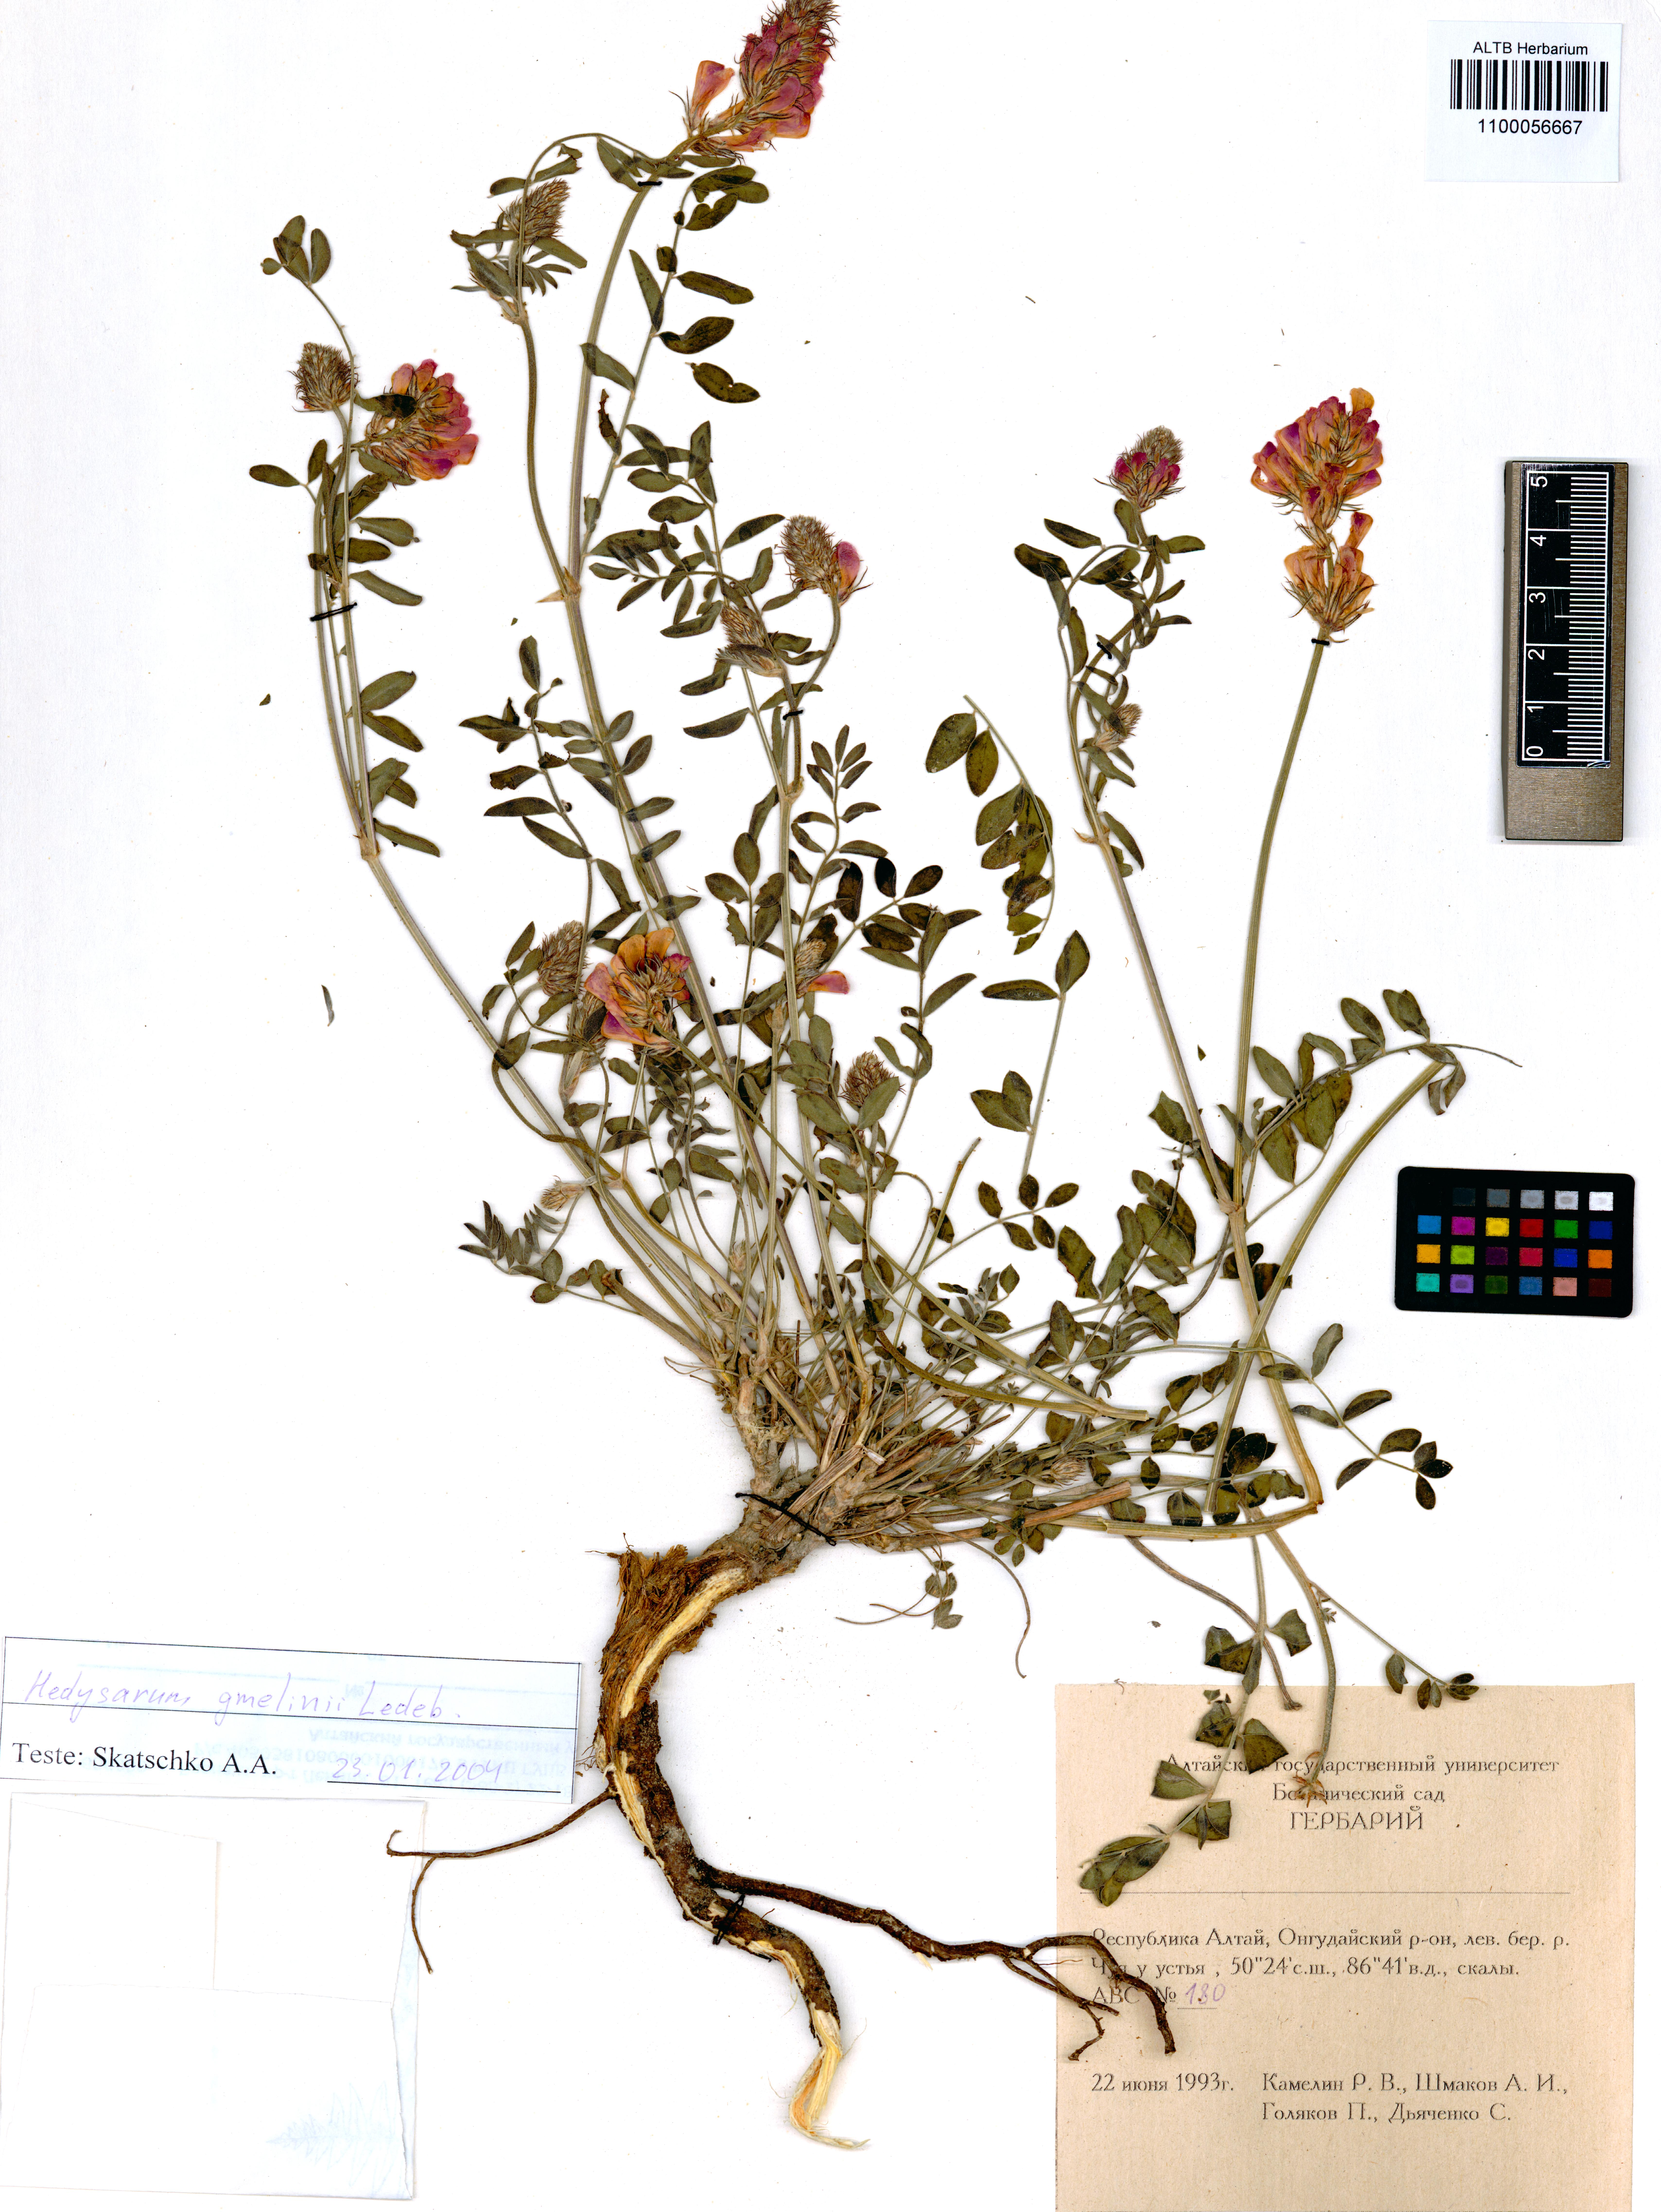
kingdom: Plantae
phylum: Tracheophyta
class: Magnoliopsida
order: Fabales
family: Fabaceae
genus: Hedysarum
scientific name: Hedysarum gmelinii
